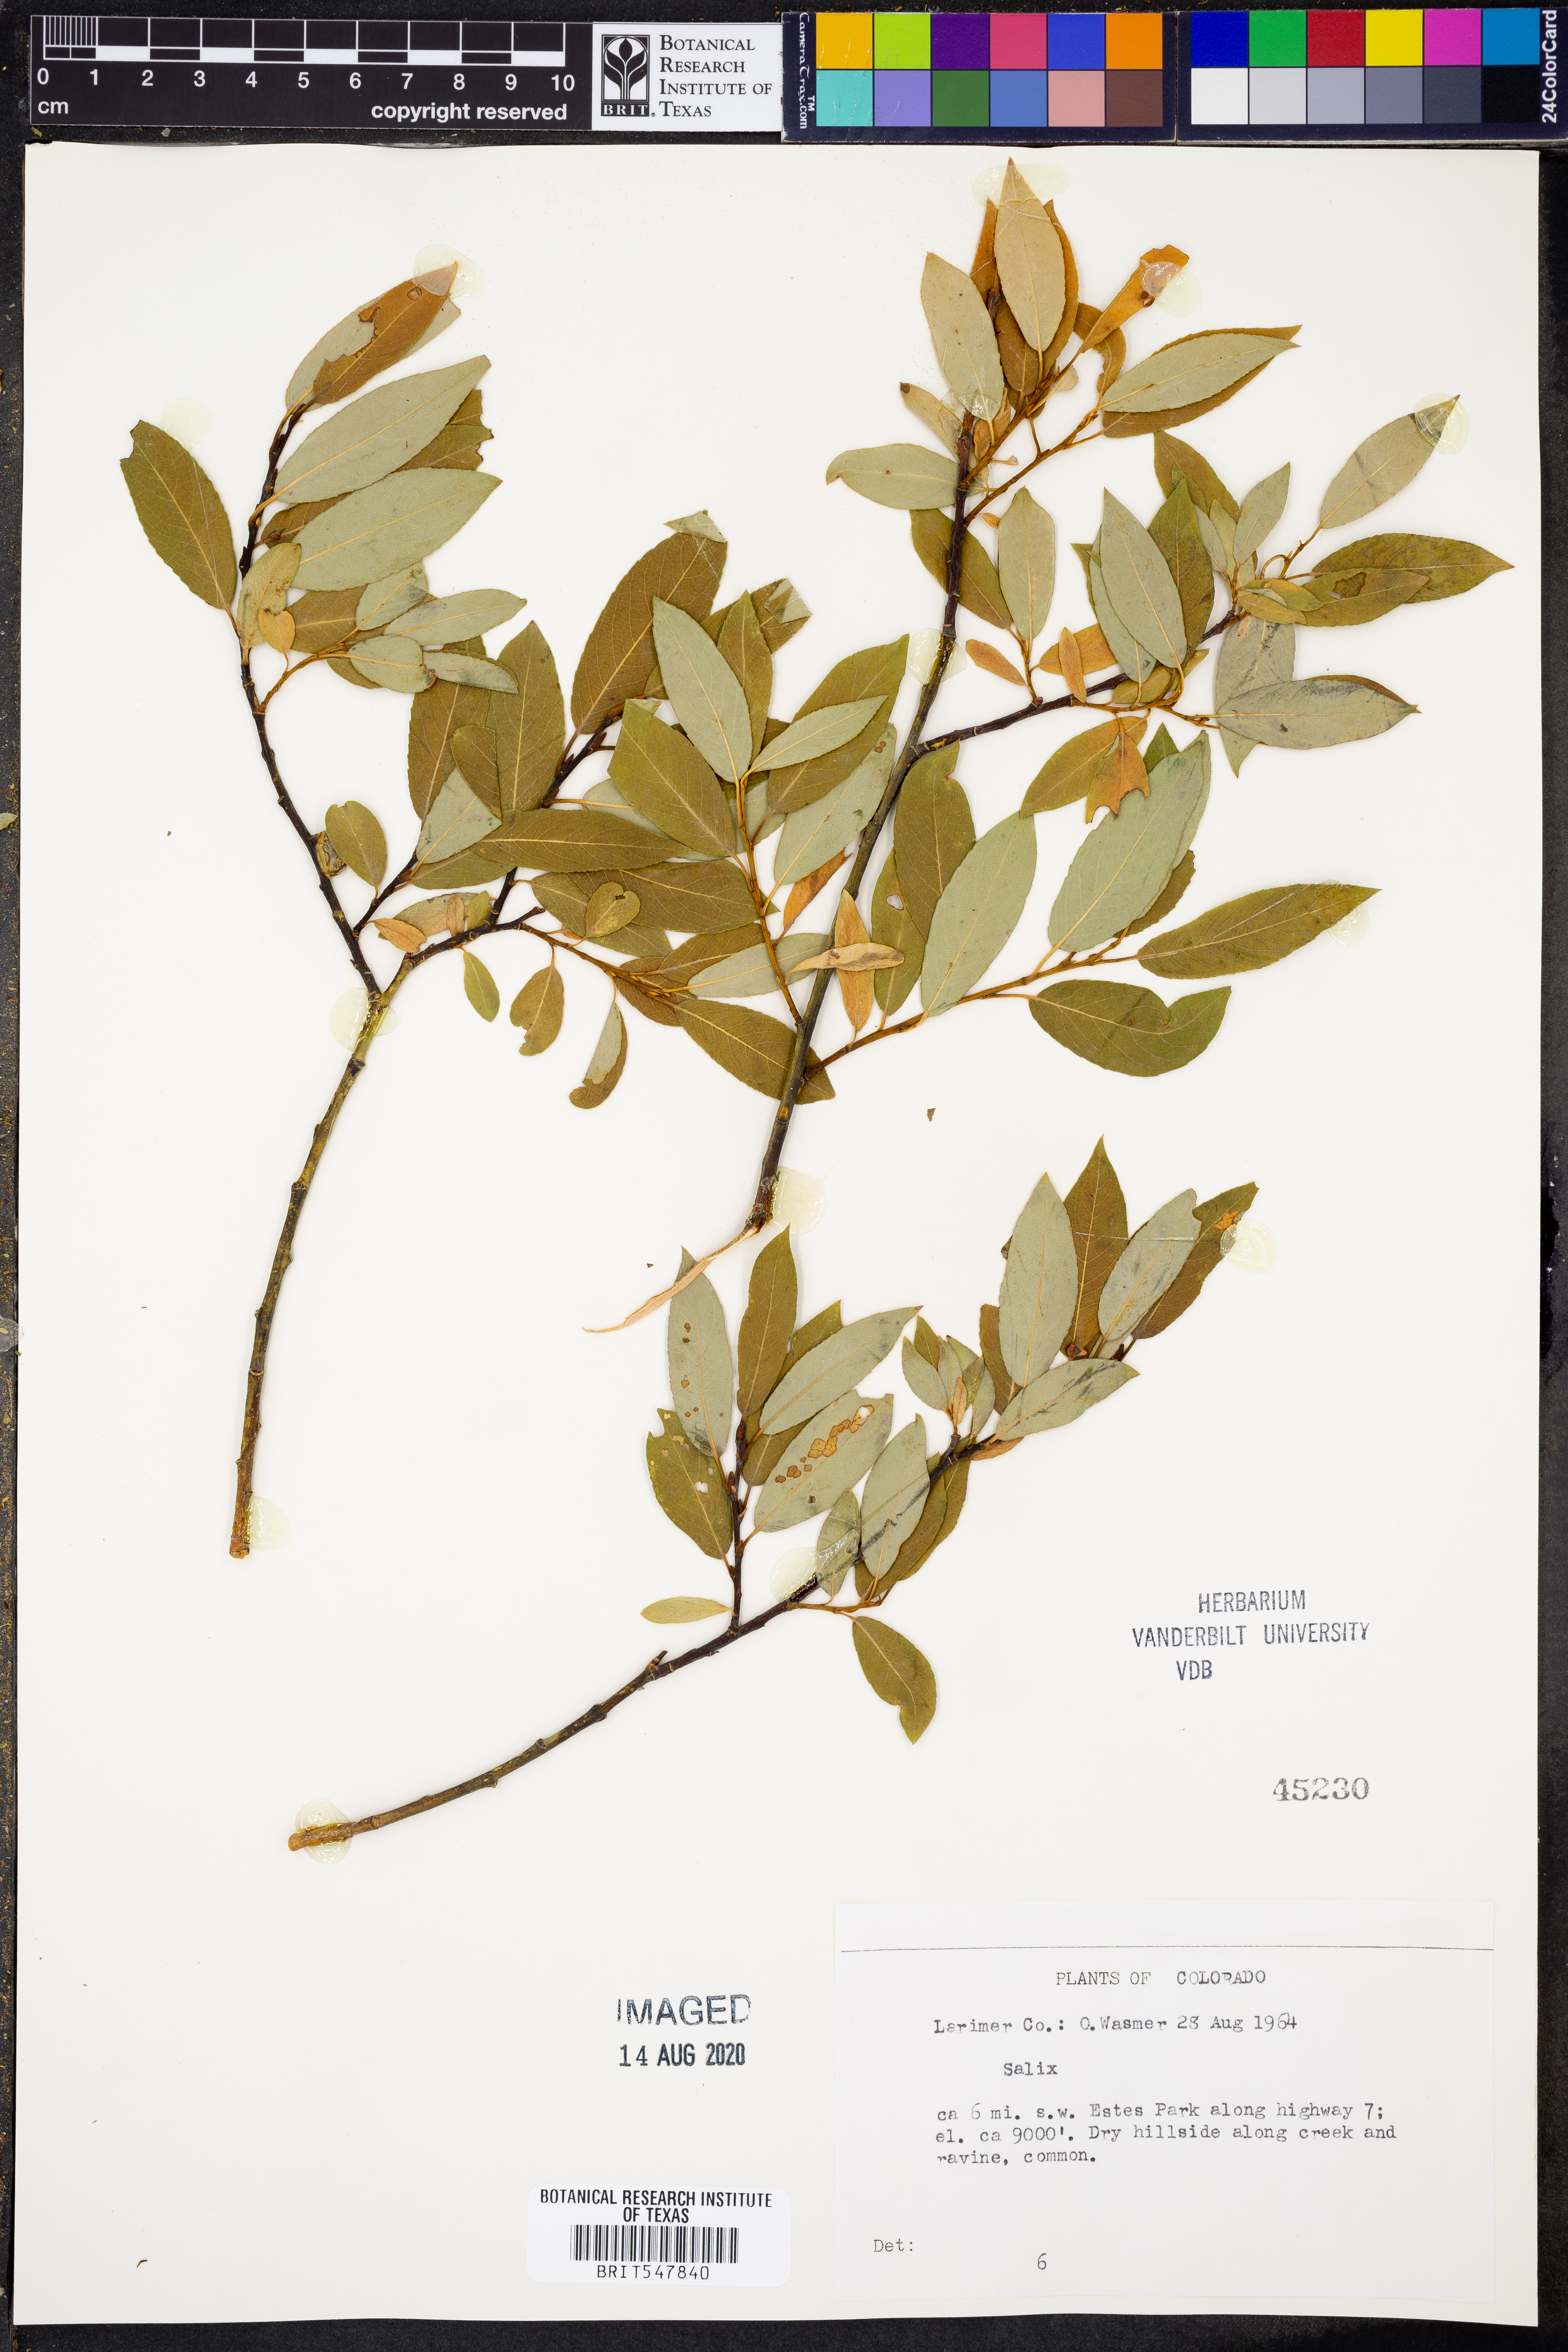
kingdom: Plantae
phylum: Tracheophyta
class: Magnoliopsida
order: Malpighiales
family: Salicaceae
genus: Salix
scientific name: Salix
